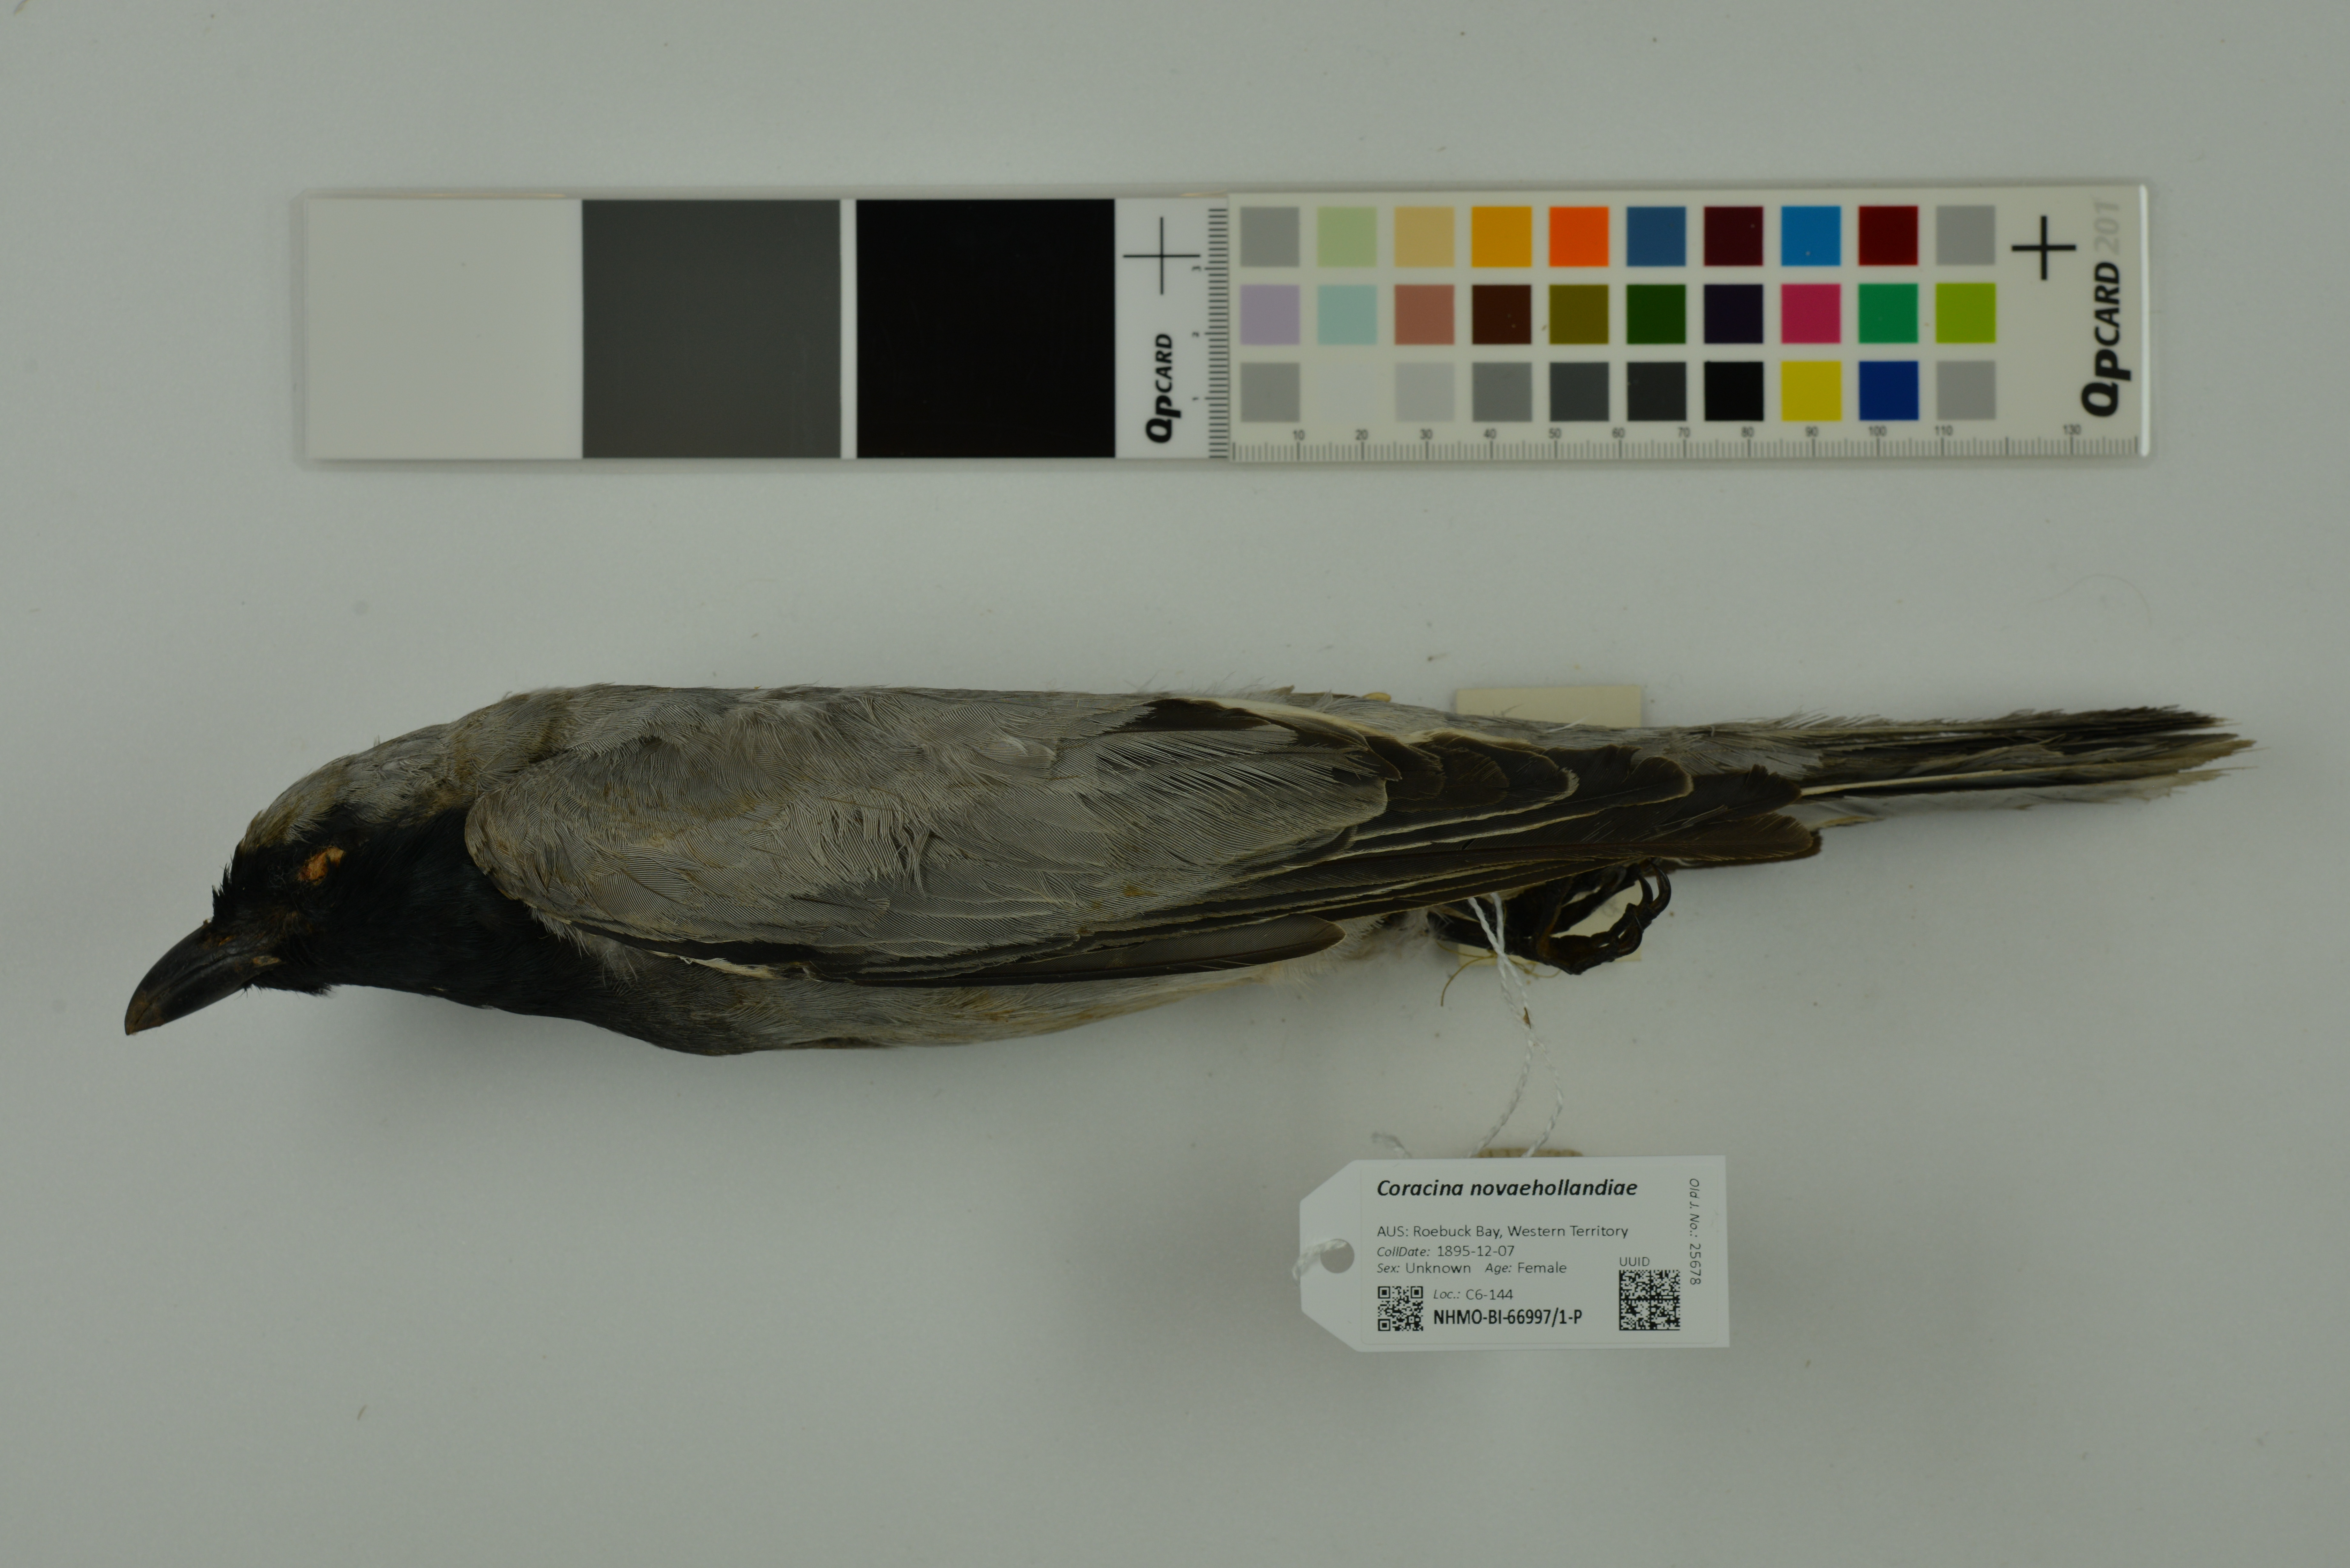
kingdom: Animalia
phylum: Chordata
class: Aves
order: Passeriformes
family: Campephagidae
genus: Coracina
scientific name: Coracina novaehollandiae
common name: Black-faced cuckooshrike
